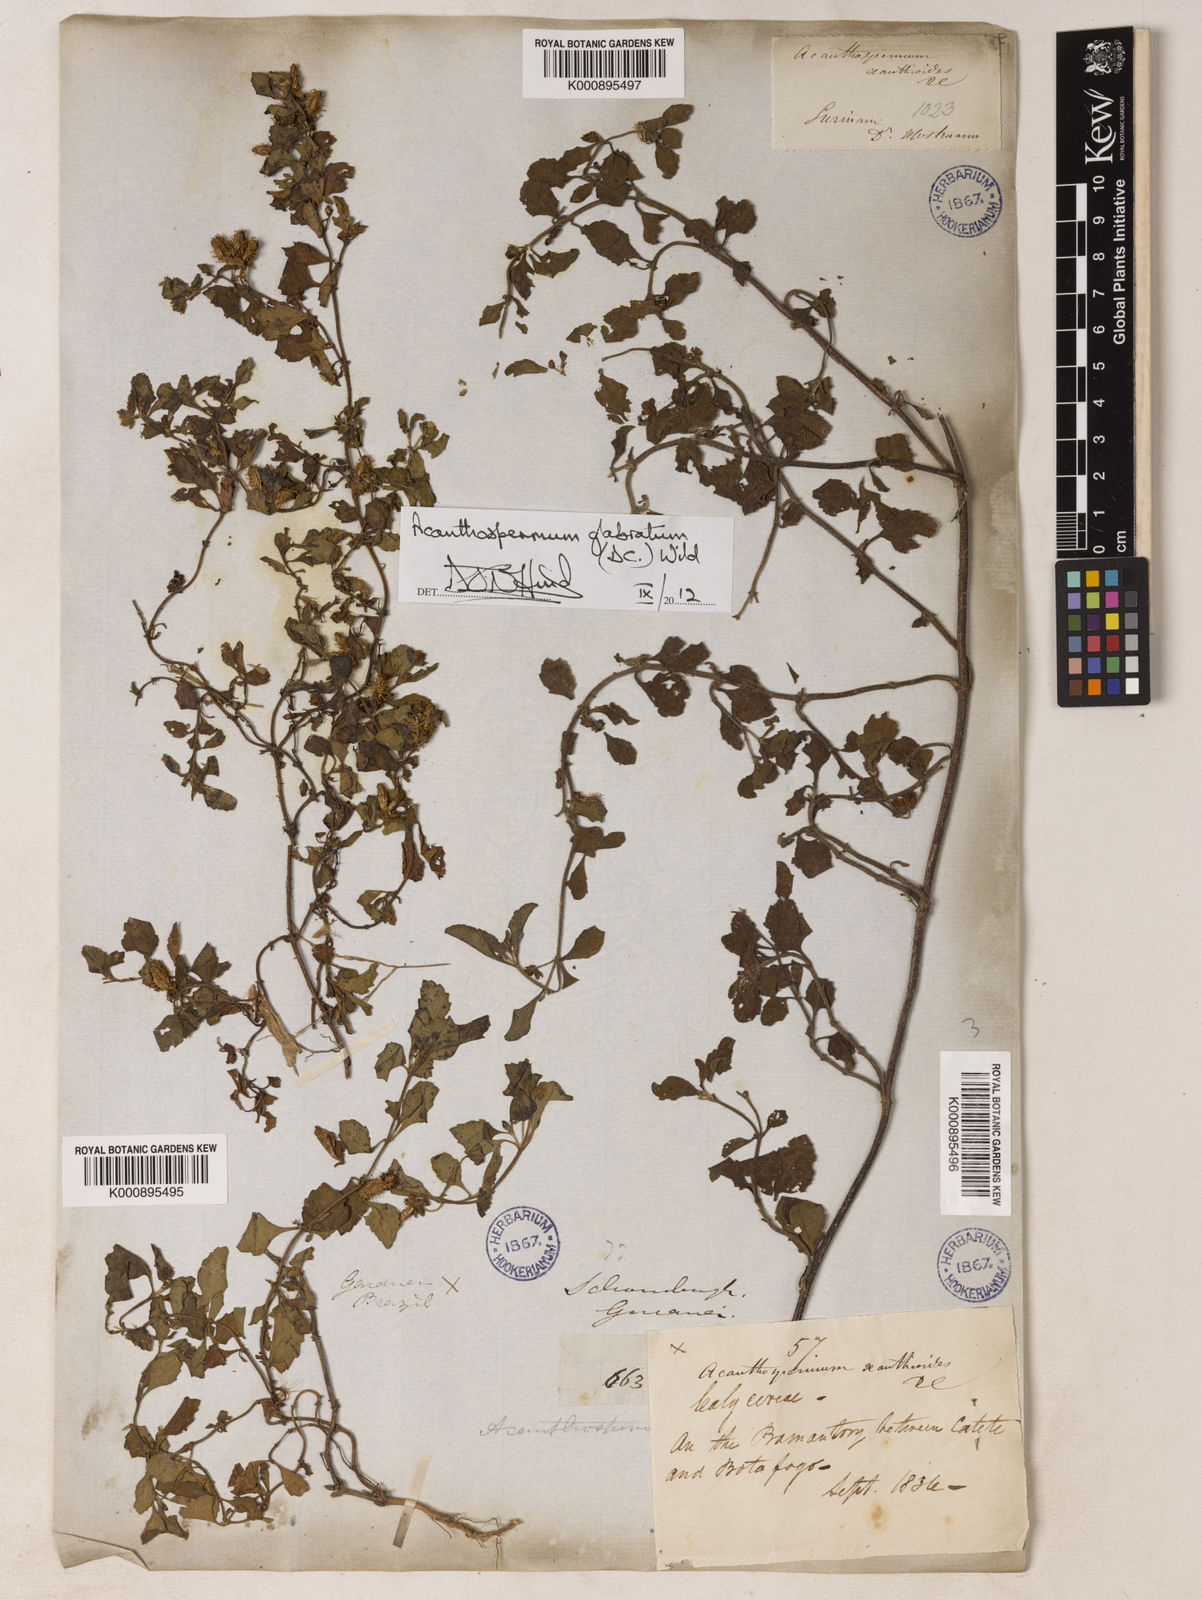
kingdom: Plantae
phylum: Tracheophyta
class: Magnoliopsida
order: Asterales
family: Asteraceae
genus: Acanthospermum
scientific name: Acanthospermum glabratum
